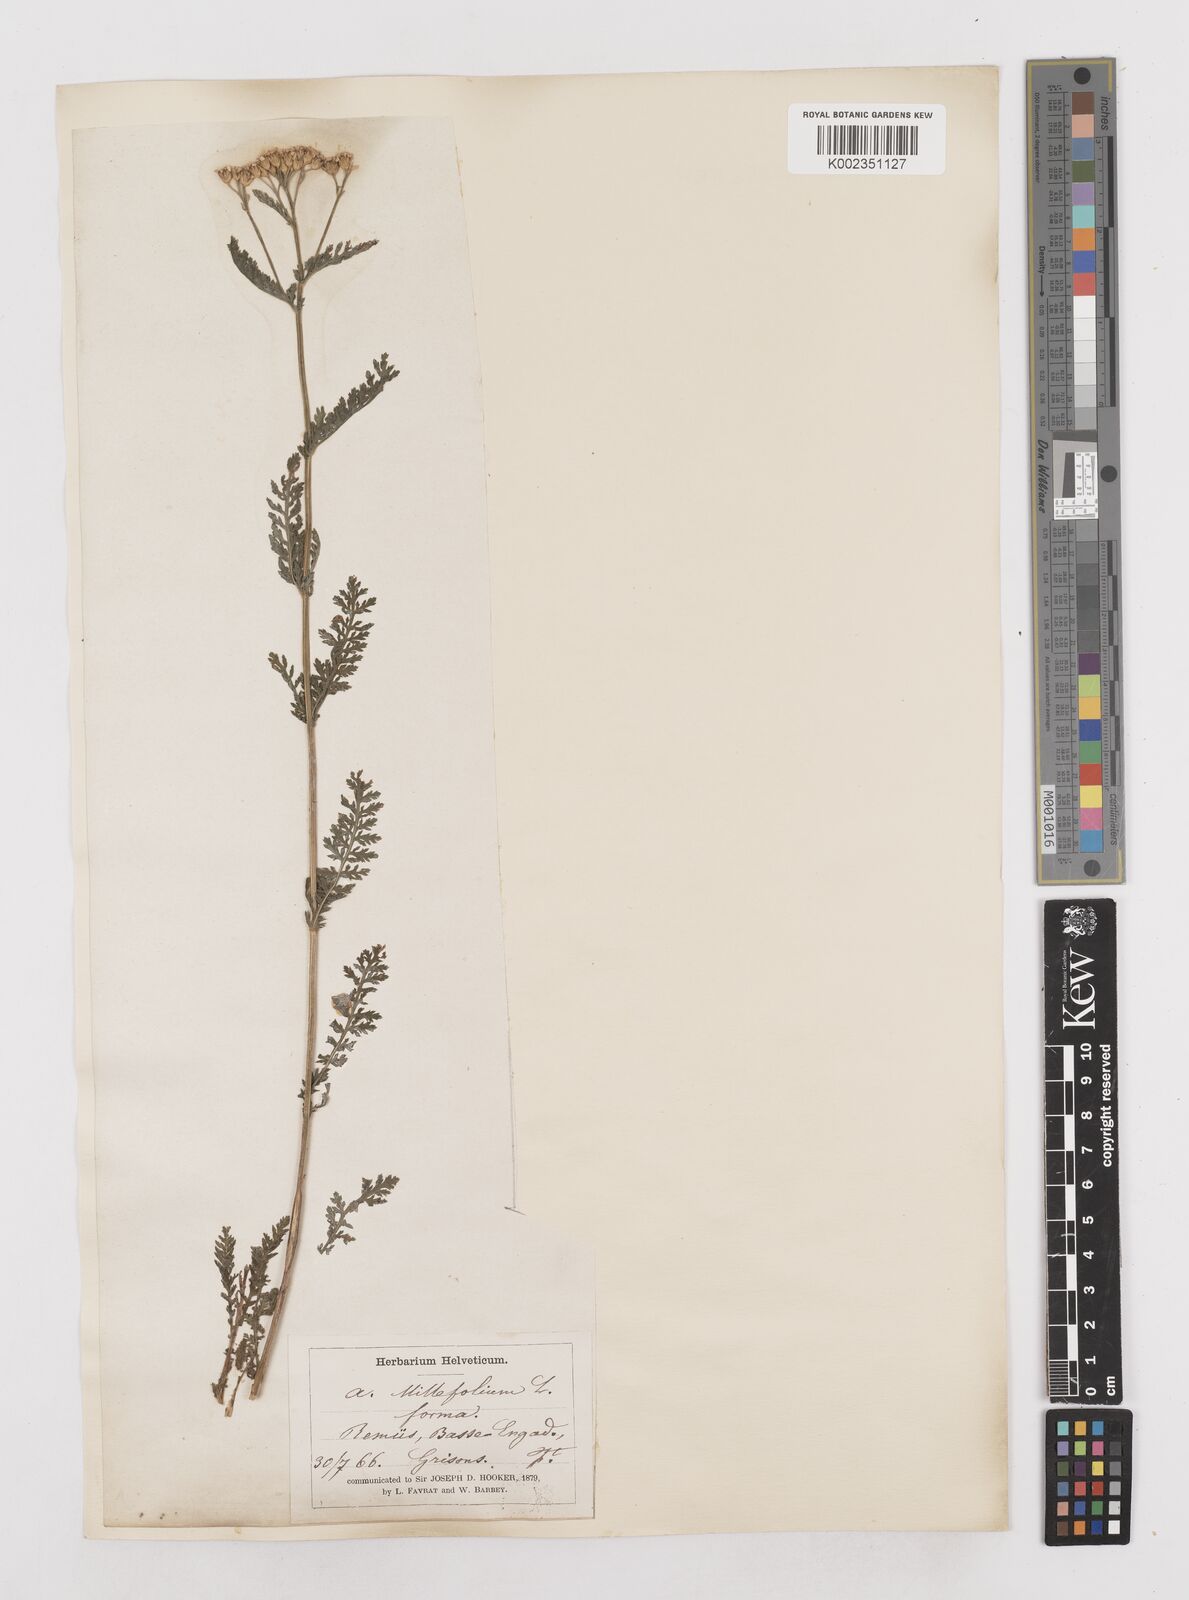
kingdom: Plantae
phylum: Tracheophyta
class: Magnoliopsida
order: Asterales
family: Asteraceae
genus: Achillea
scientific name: Achillea millefolium
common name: Yarrow
